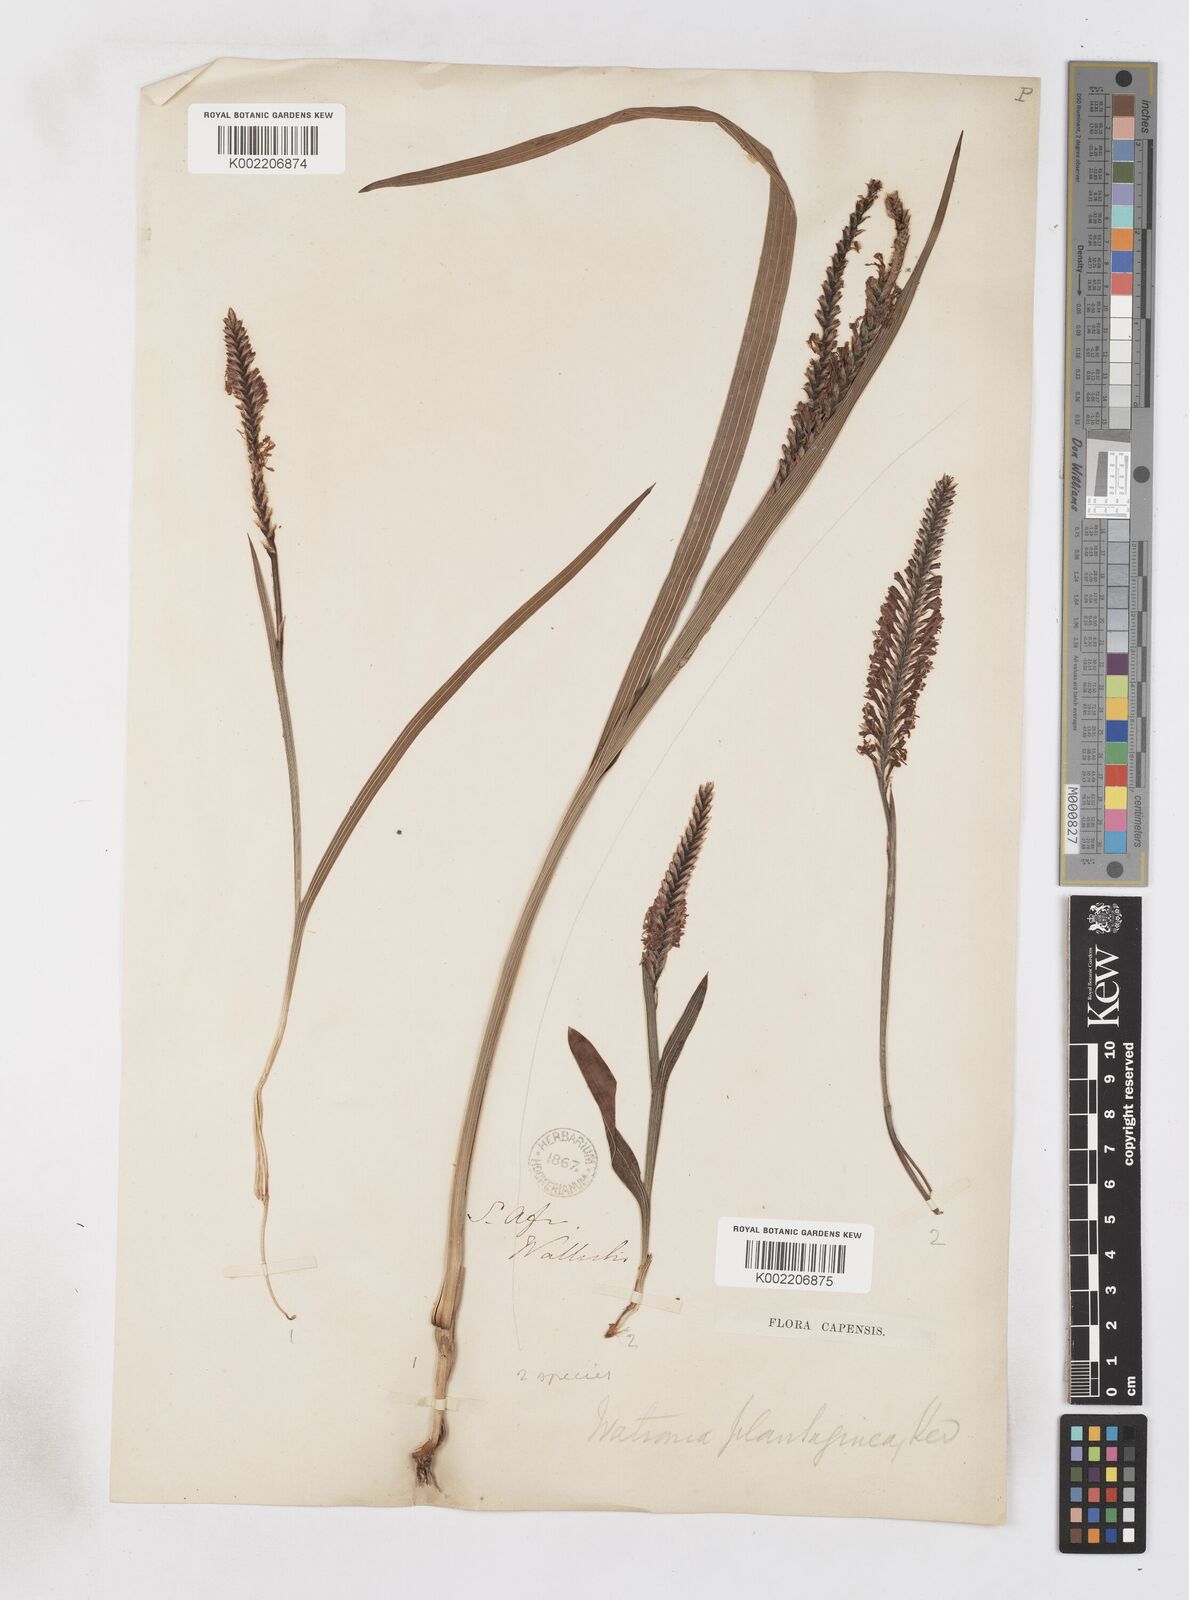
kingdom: Plantae
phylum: Tracheophyta
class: Liliopsida
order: Asparagales
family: Iridaceae
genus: Micranthus
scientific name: Micranthus plantagineus
